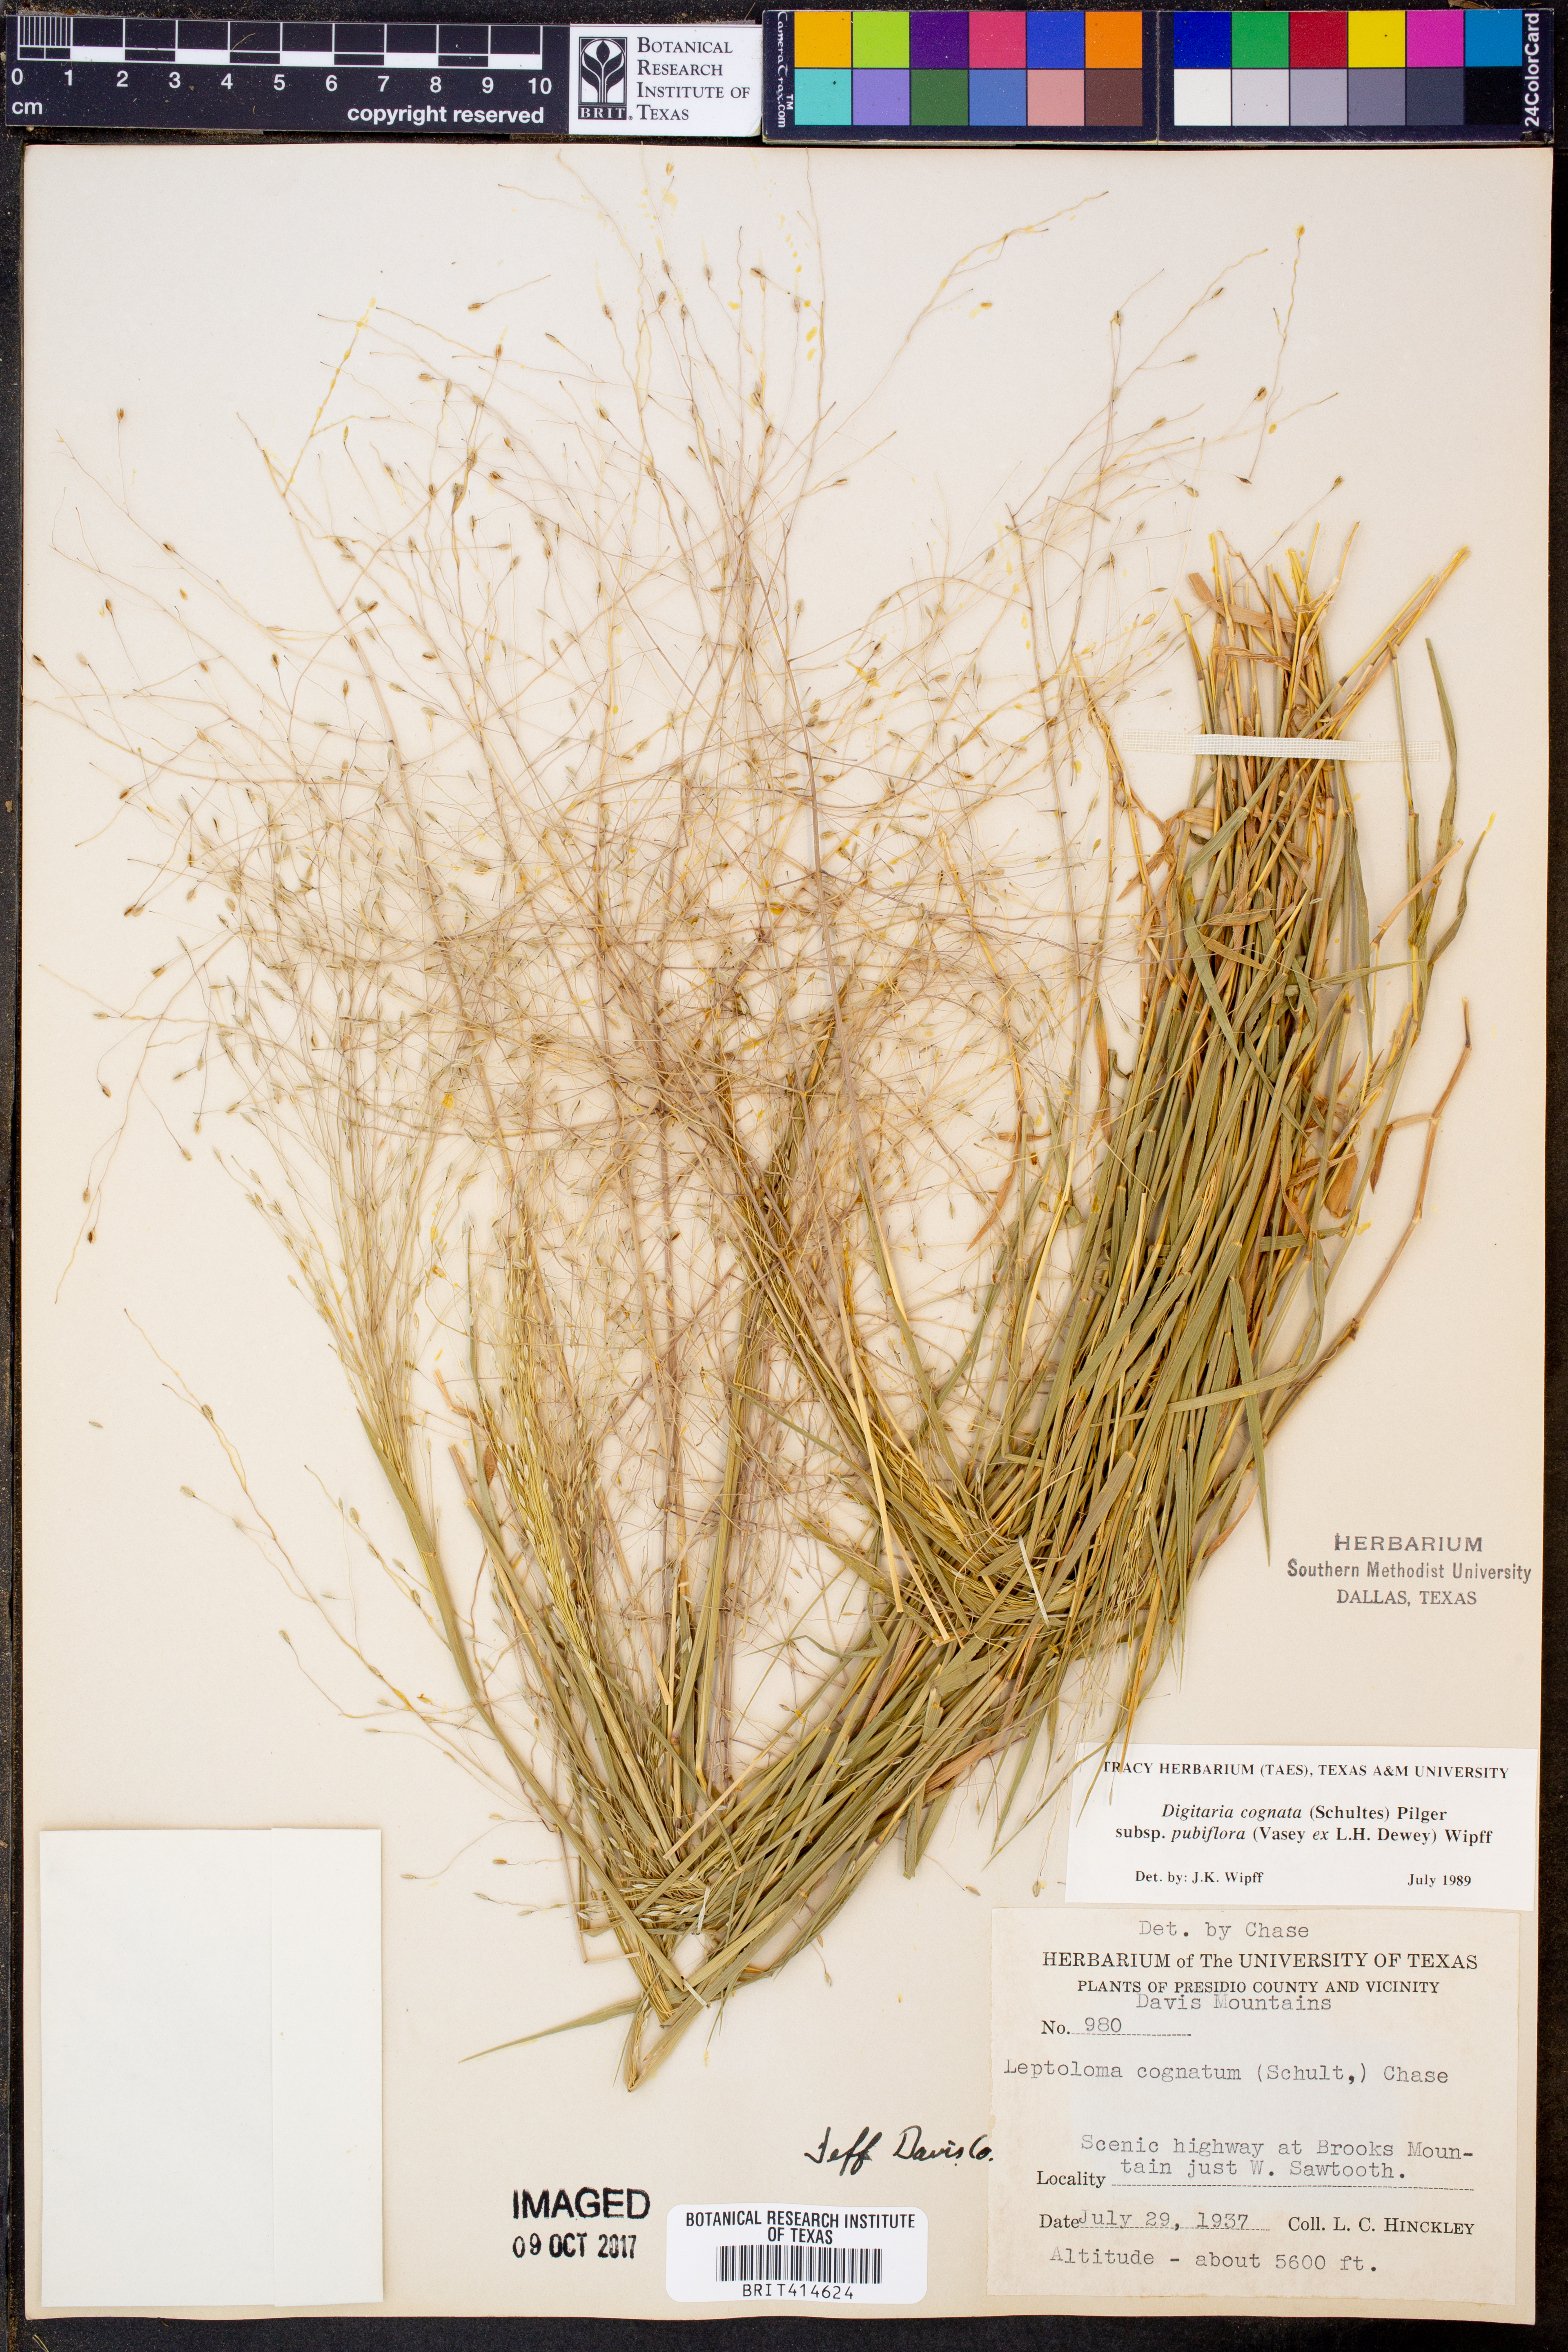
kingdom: Plantae
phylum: Tracheophyta
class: Liliopsida
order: Poales
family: Poaceae
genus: Digitaria
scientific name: Digitaria cognata
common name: Fall witchgrass
